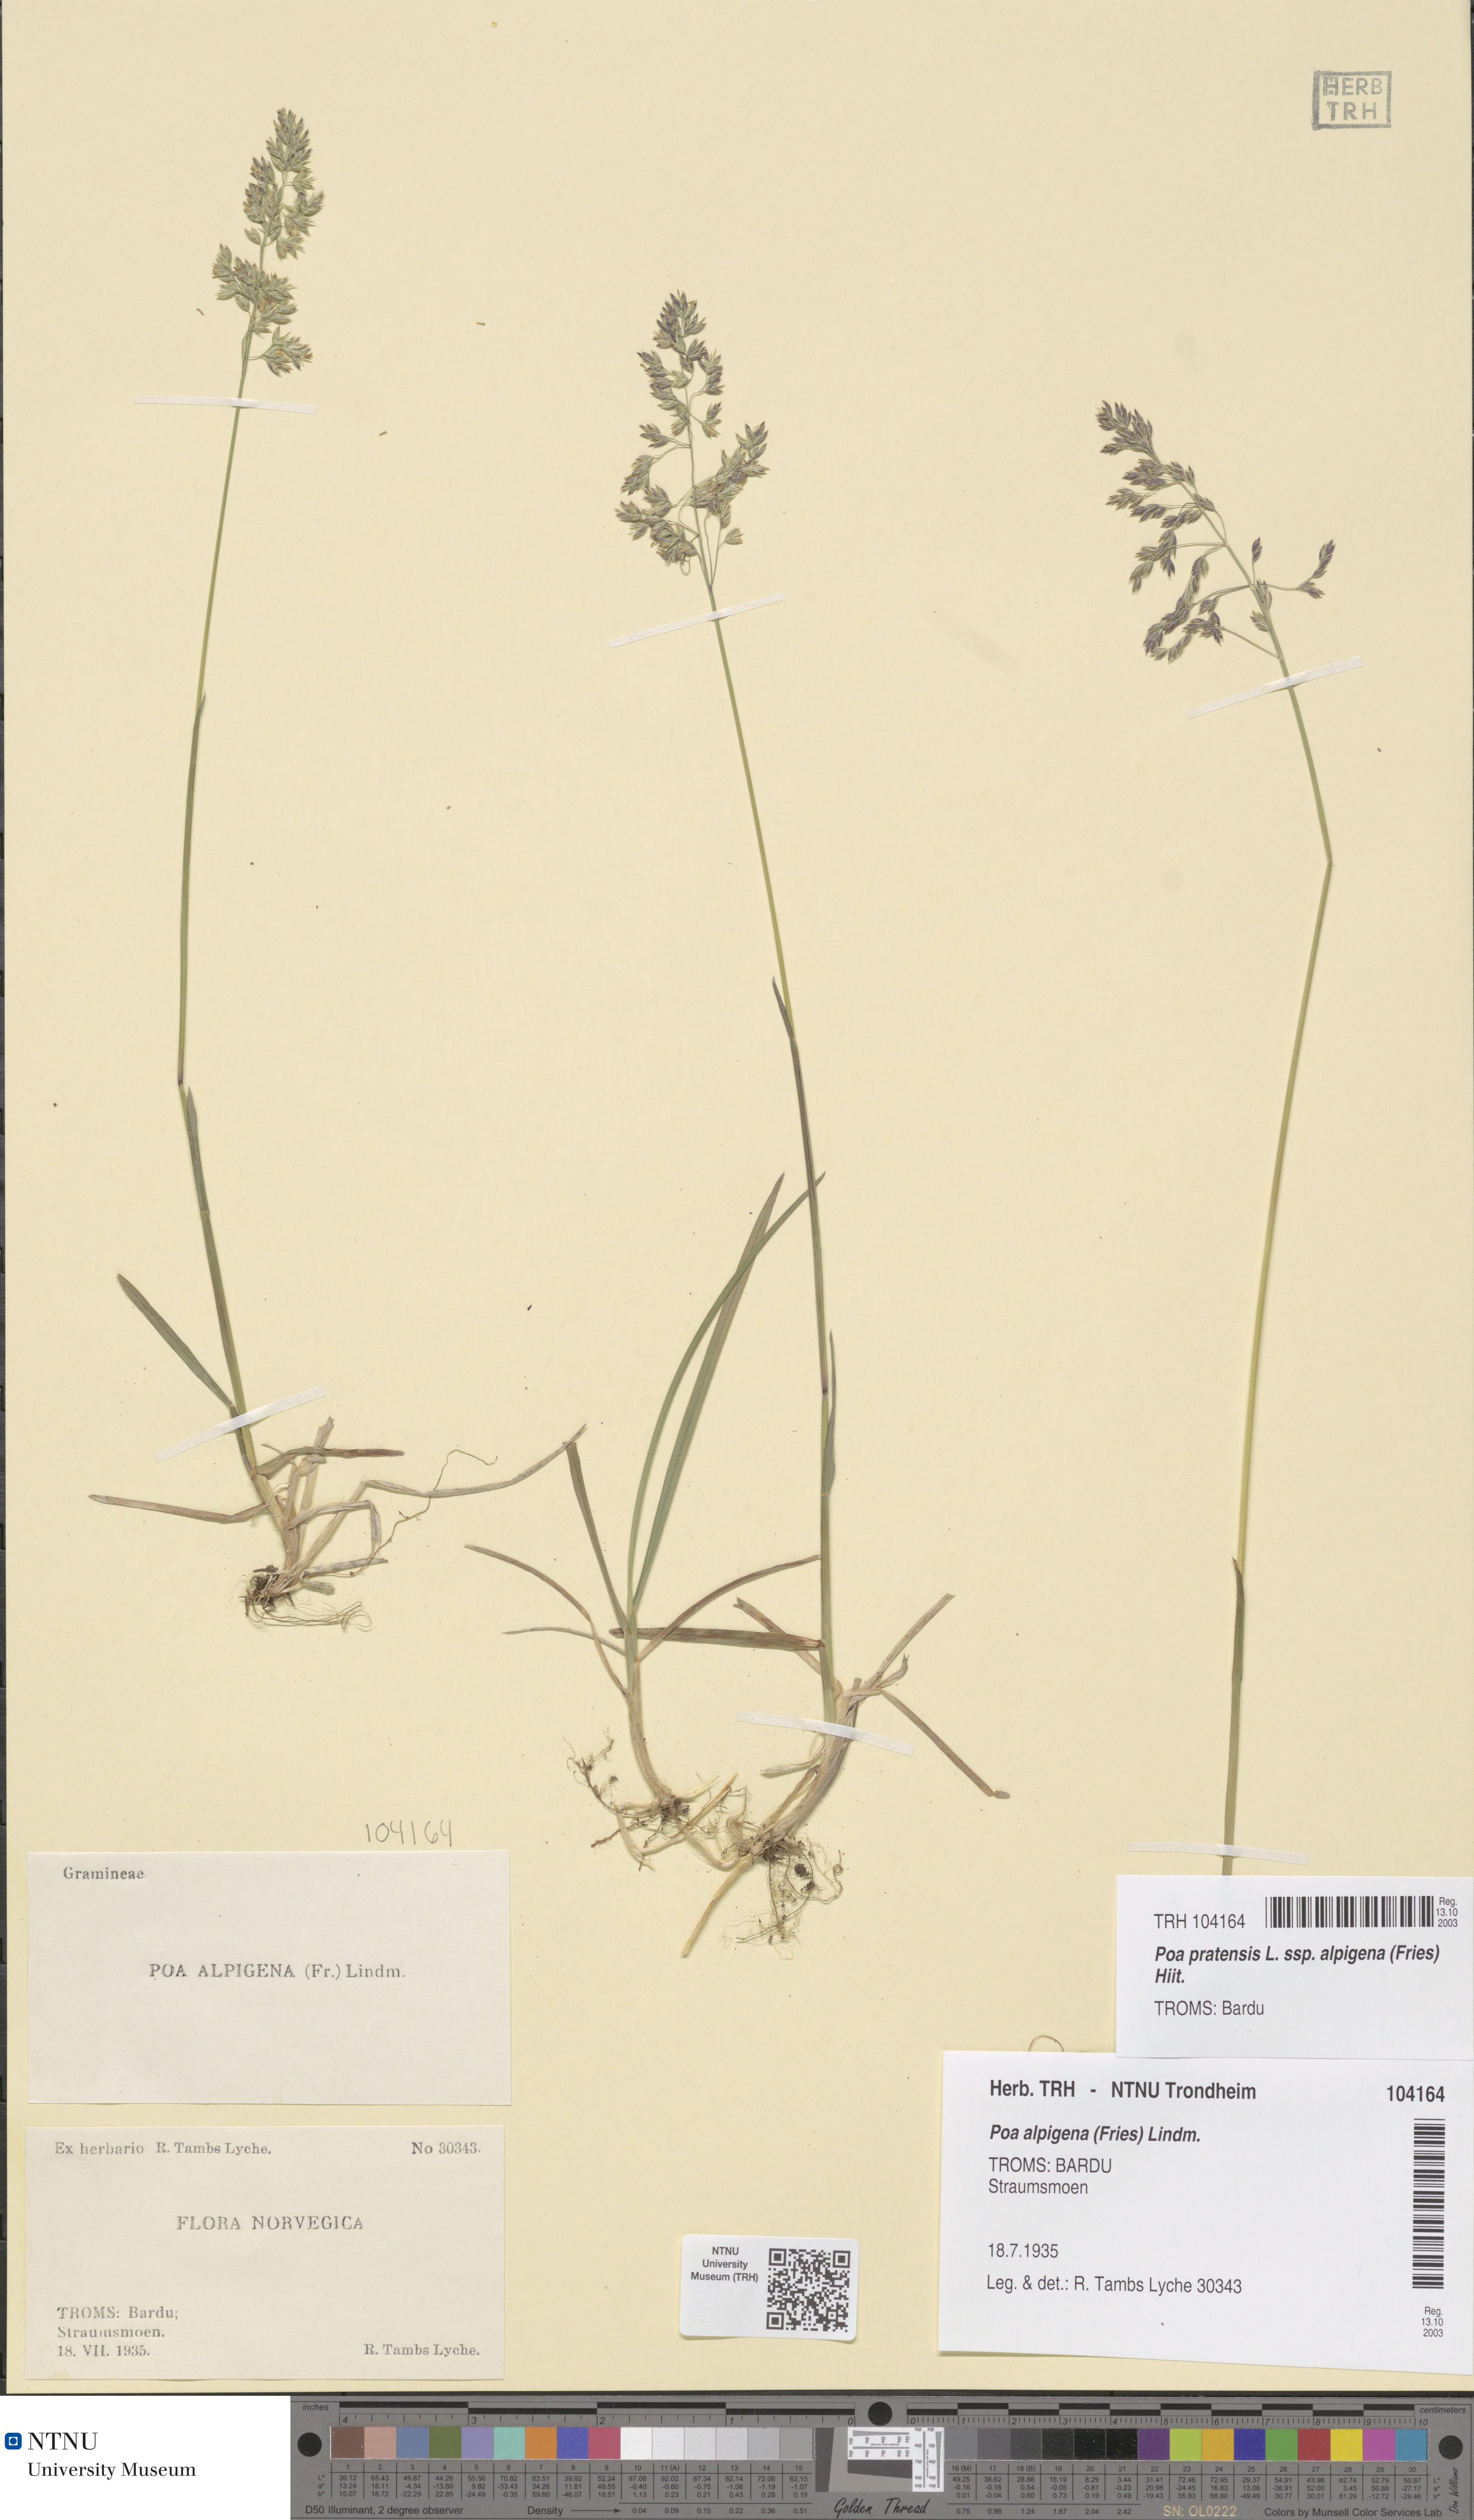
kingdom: Plantae
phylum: Tracheophyta
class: Liliopsida
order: Poales
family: Poaceae
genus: Poa
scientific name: Poa alpigena
